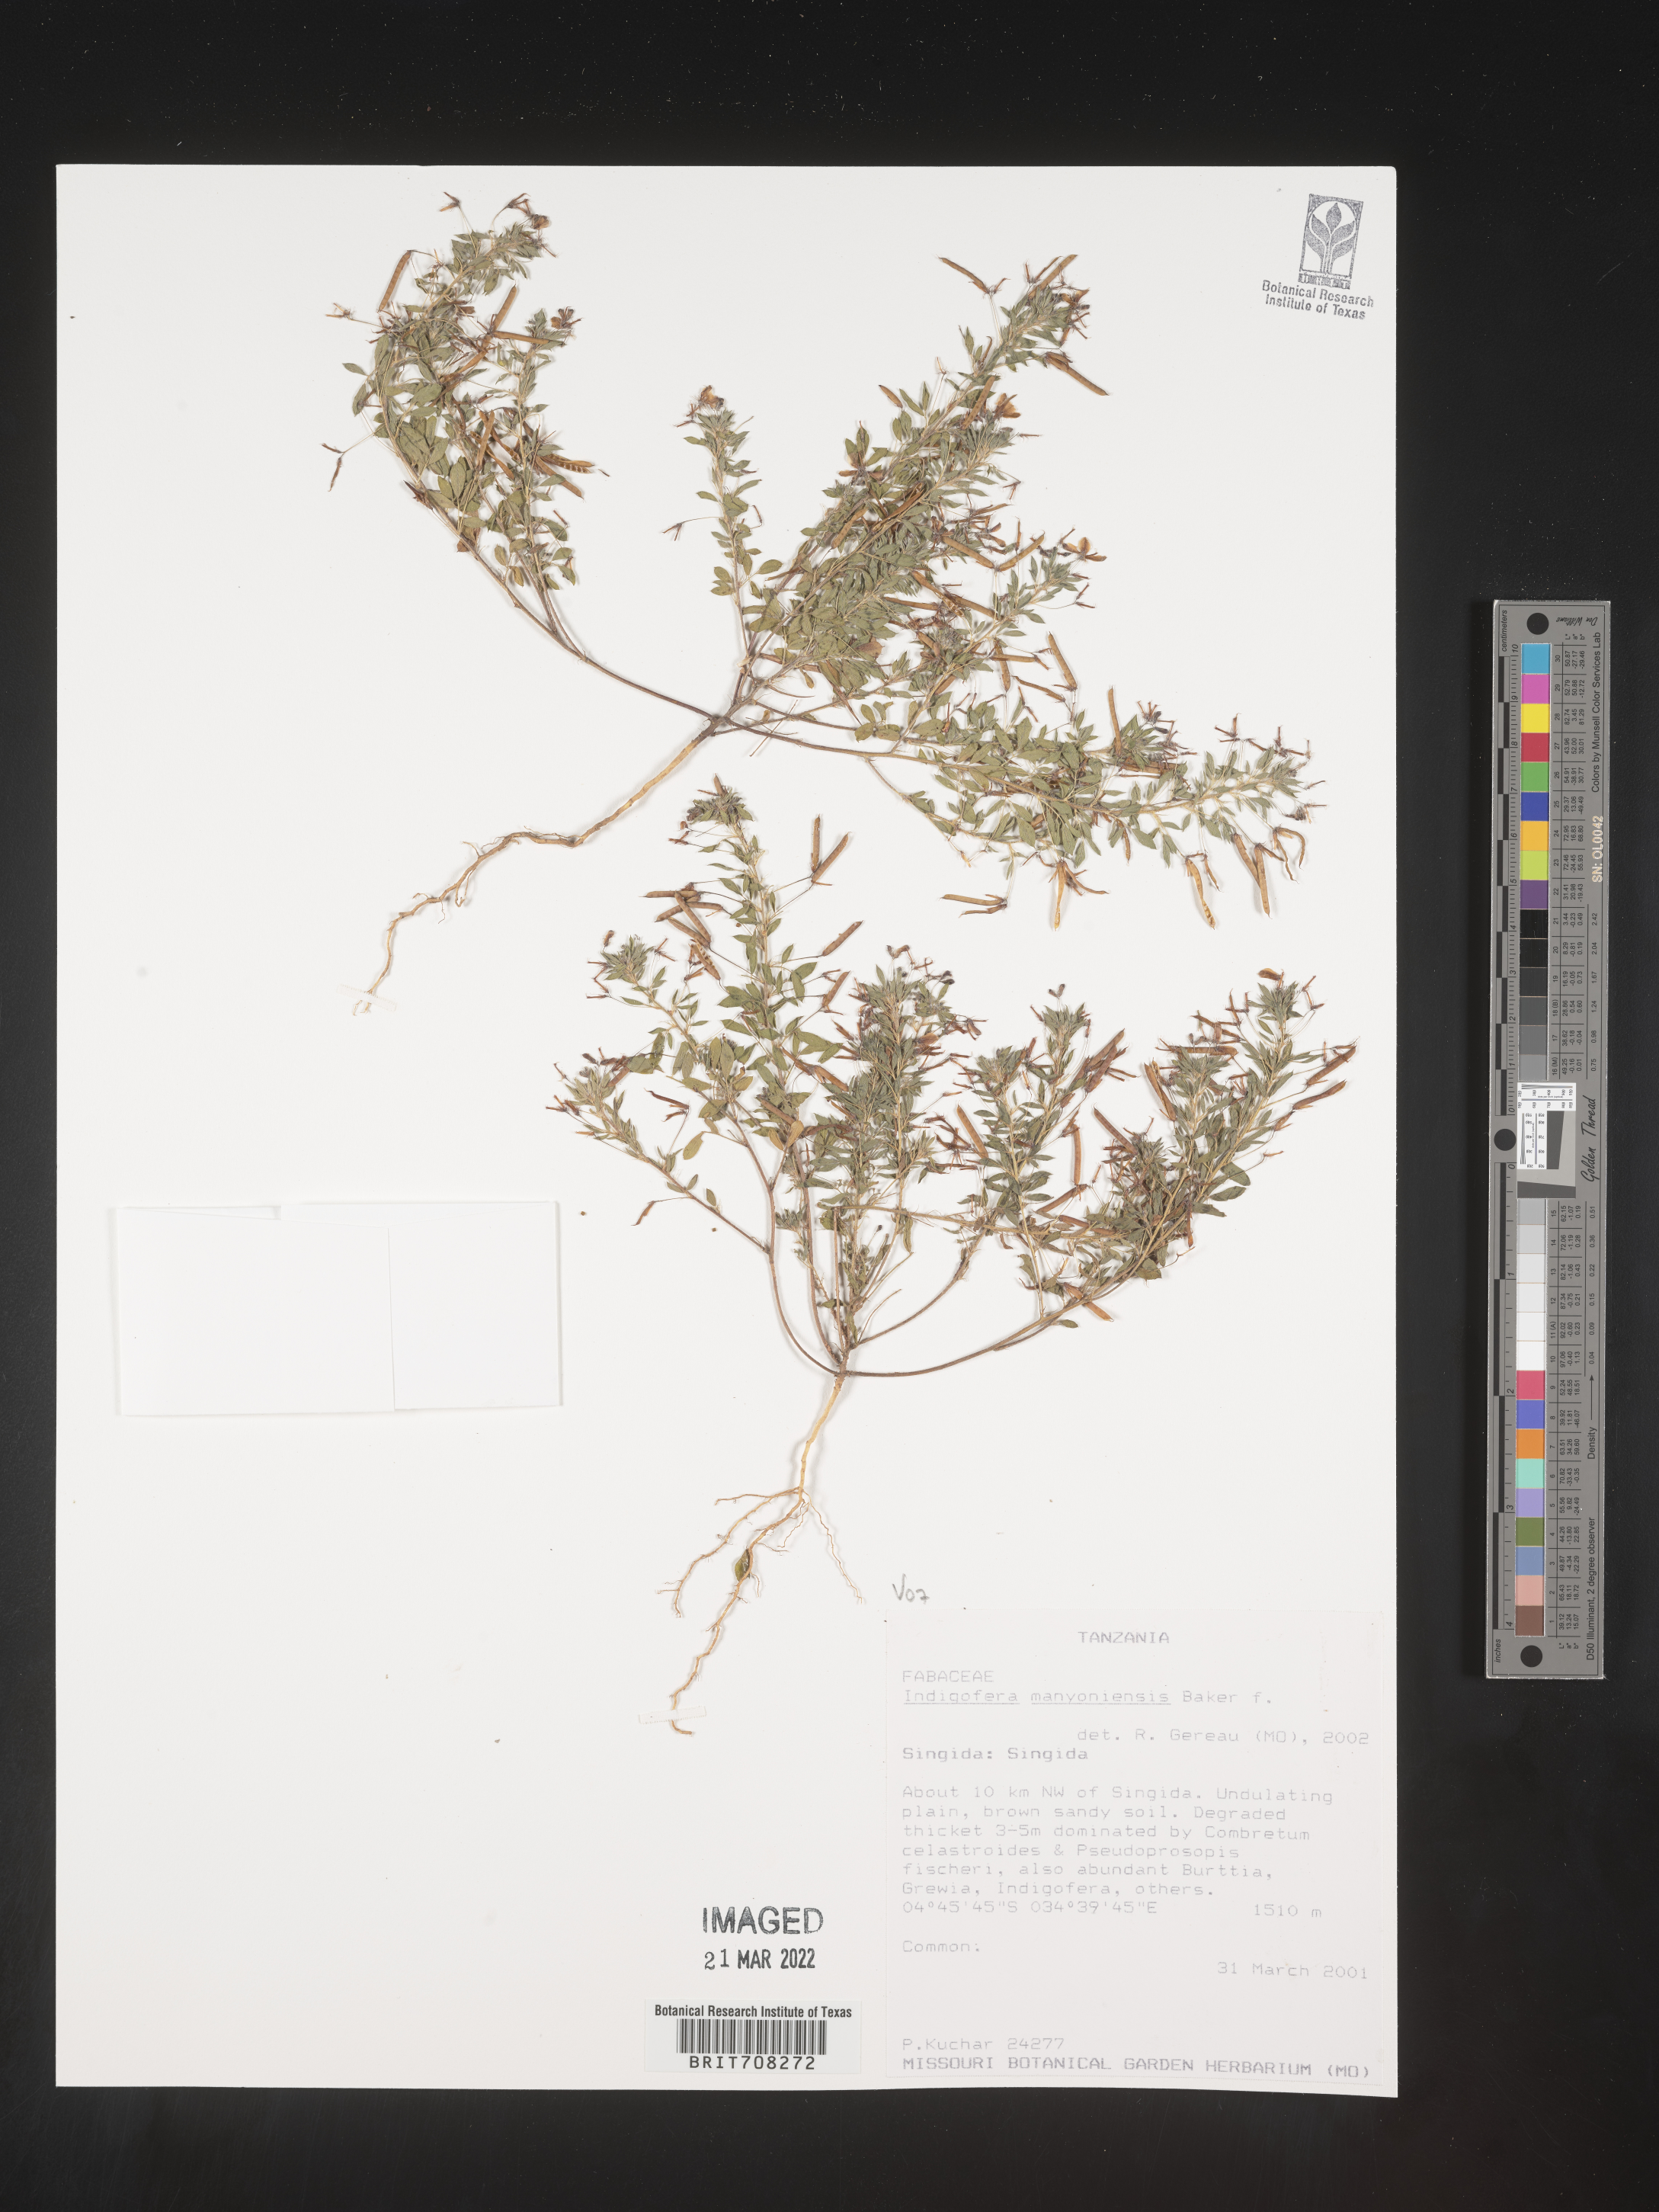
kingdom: Plantae
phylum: Tracheophyta
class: Magnoliopsida
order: Fabales
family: Fabaceae
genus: Indigofera
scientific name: Indigofera
